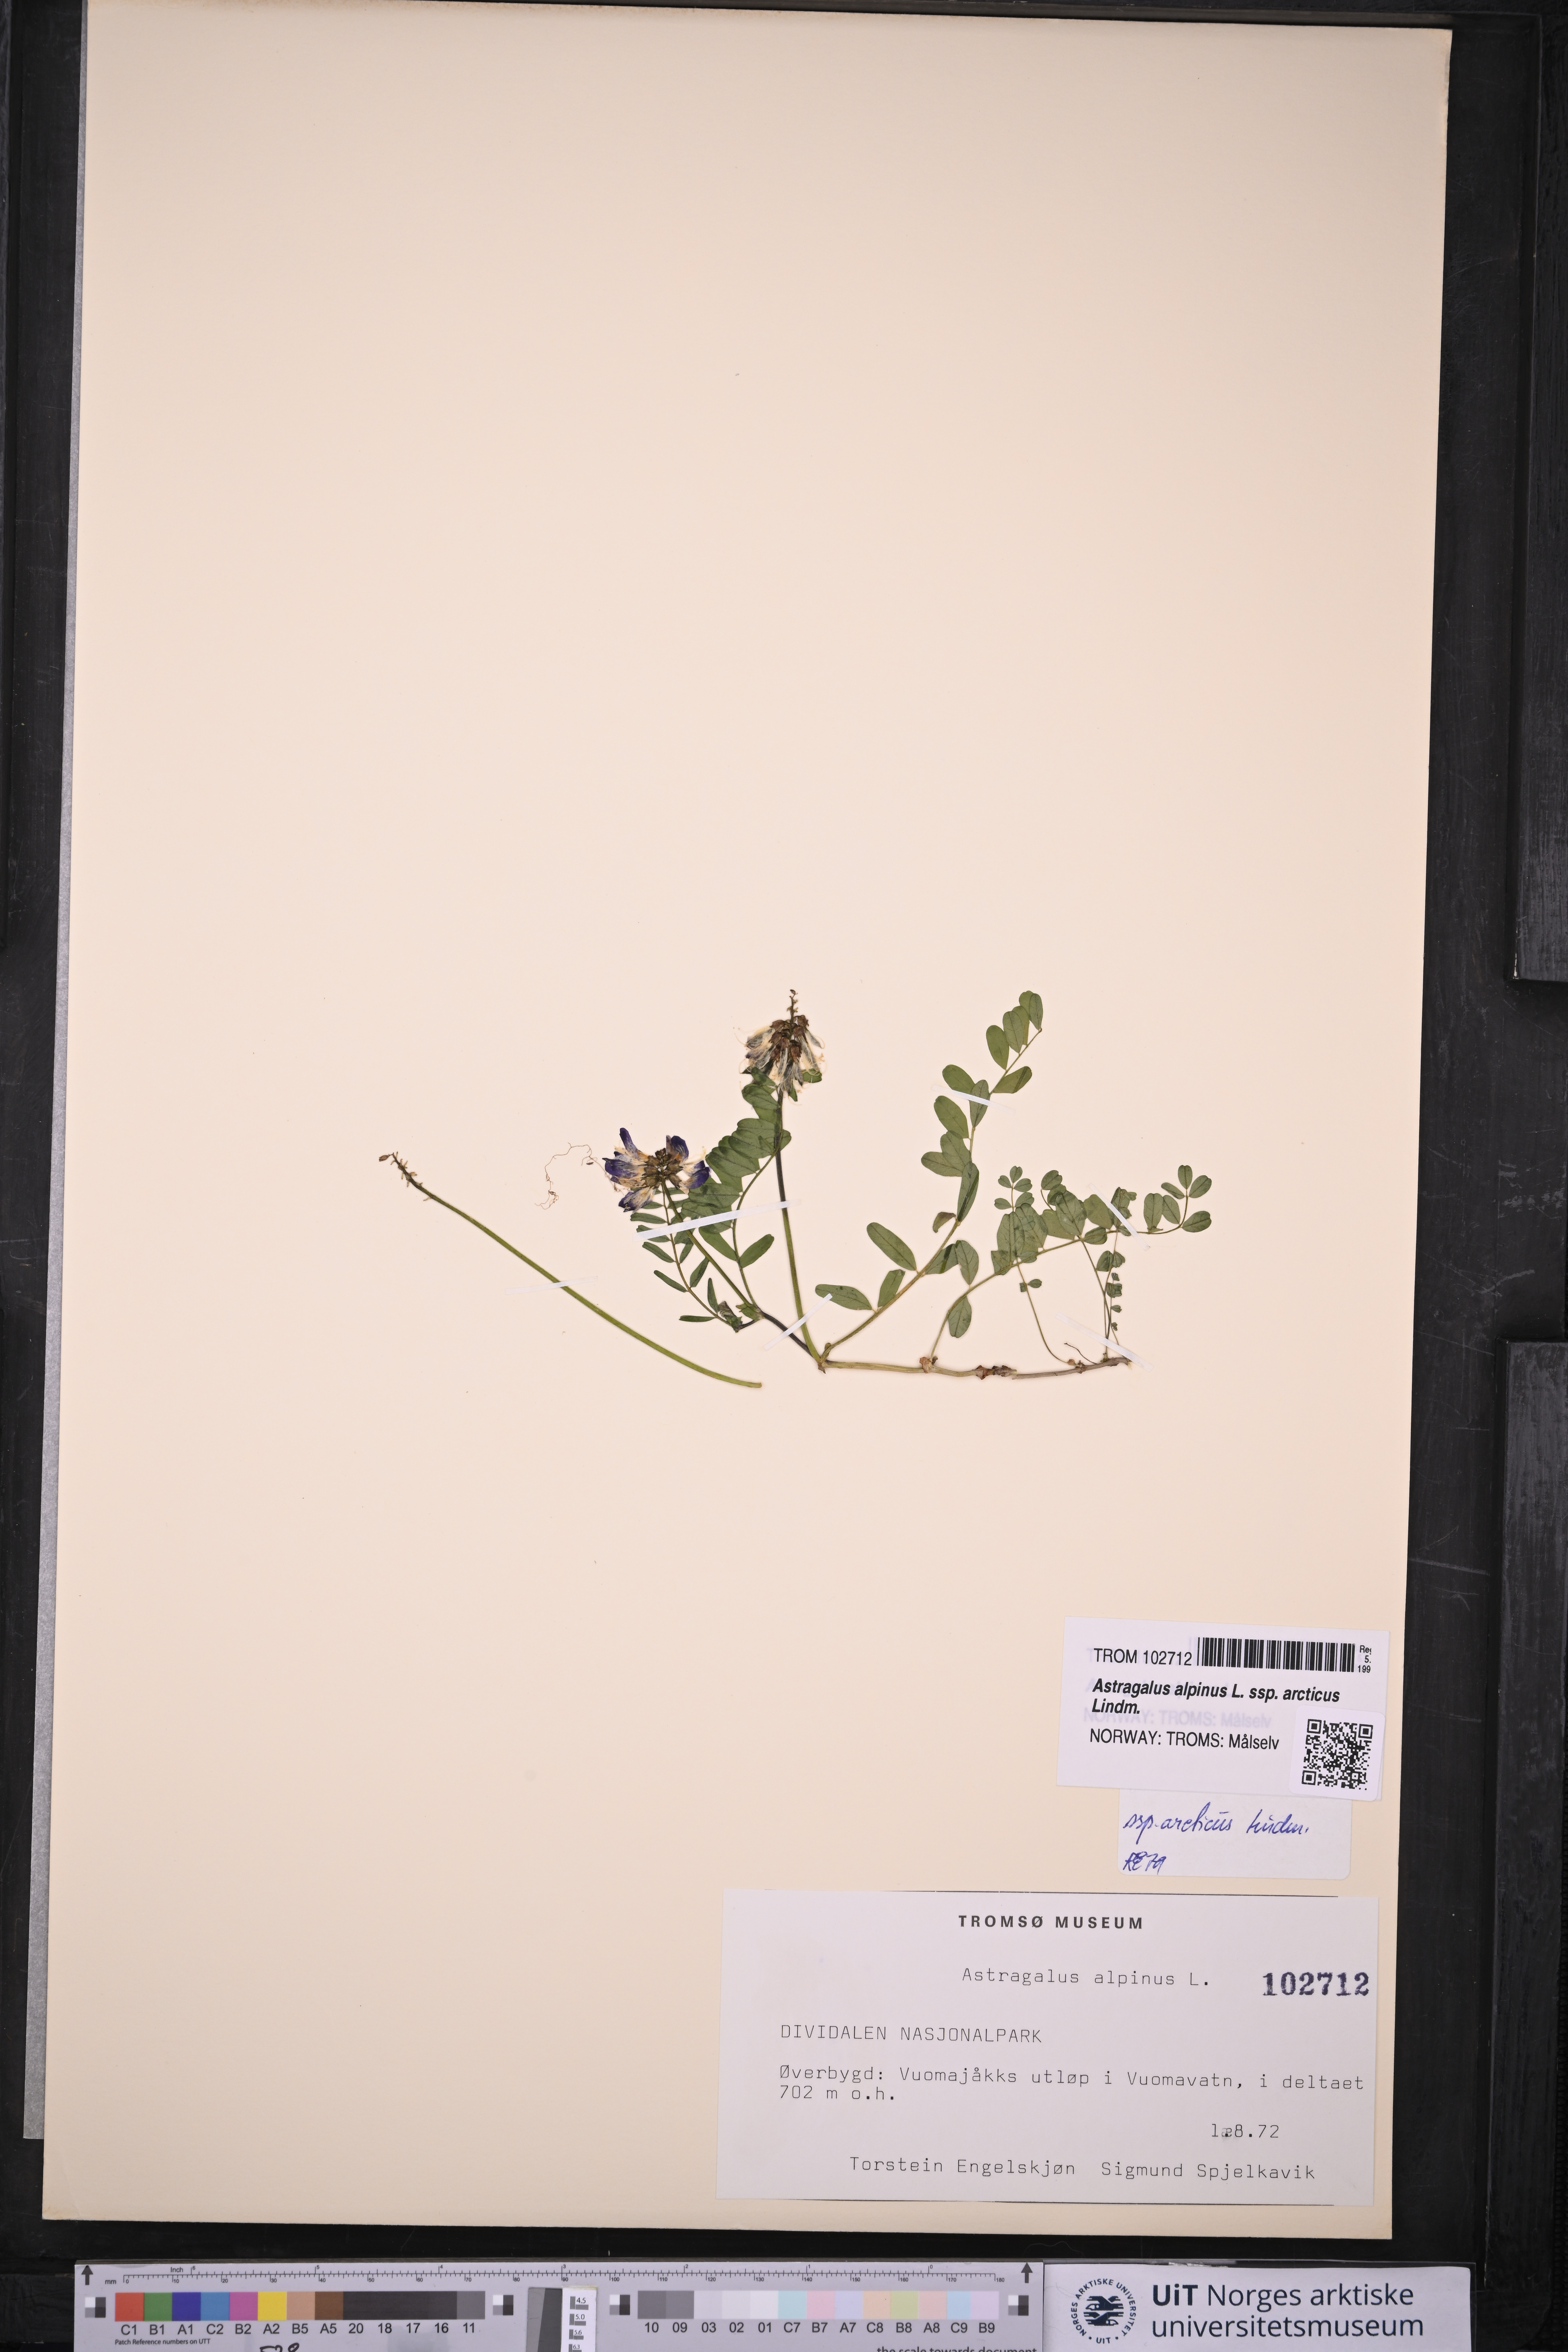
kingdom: Plantae
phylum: Tracheophyta
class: Magnoliopsida
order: Fabales
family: Fabaceae
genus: Astragalus
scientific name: Astragalus norvegicus
